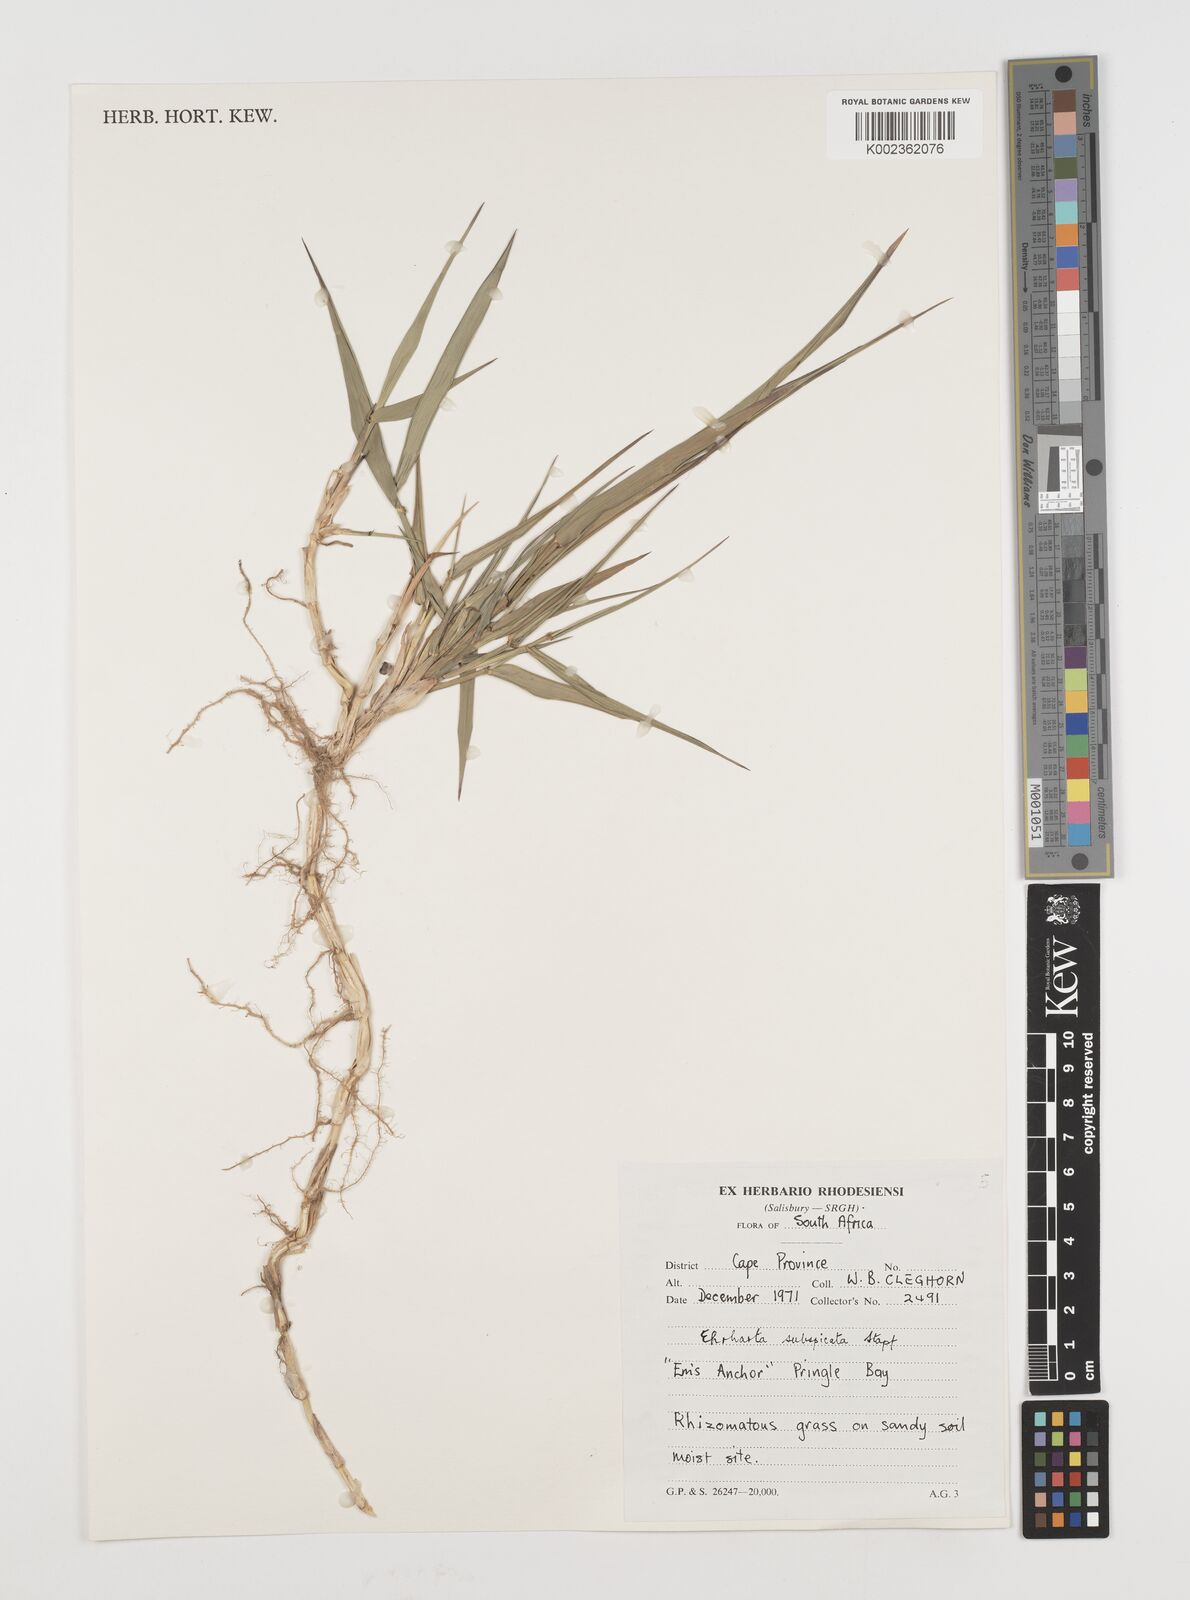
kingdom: Plantae
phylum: Tracheophyta
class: Liliopsida
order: Poales
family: Poaceae
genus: Ehrharta
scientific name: Ehrharta rehmannii
